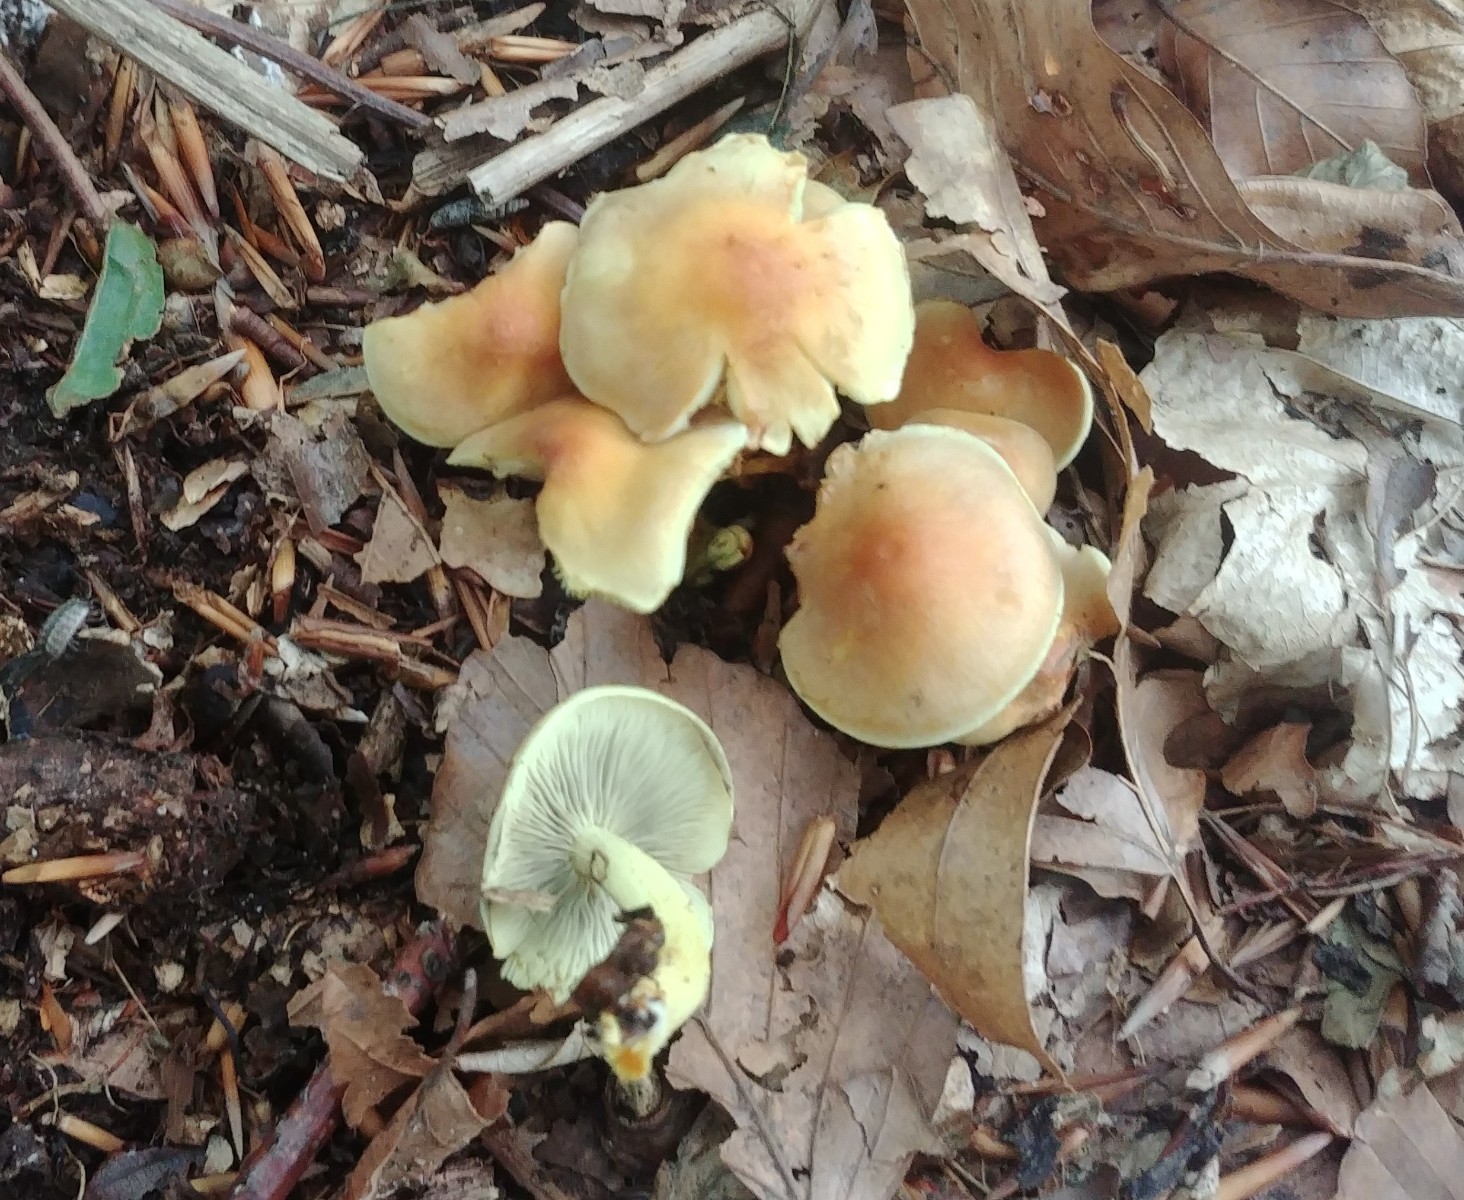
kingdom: Fungi
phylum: Basidiomycota
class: Agaricomycetes
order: Agaricales
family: Strophariaceae
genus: Hypholoma
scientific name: Hypholoma fasciculare
